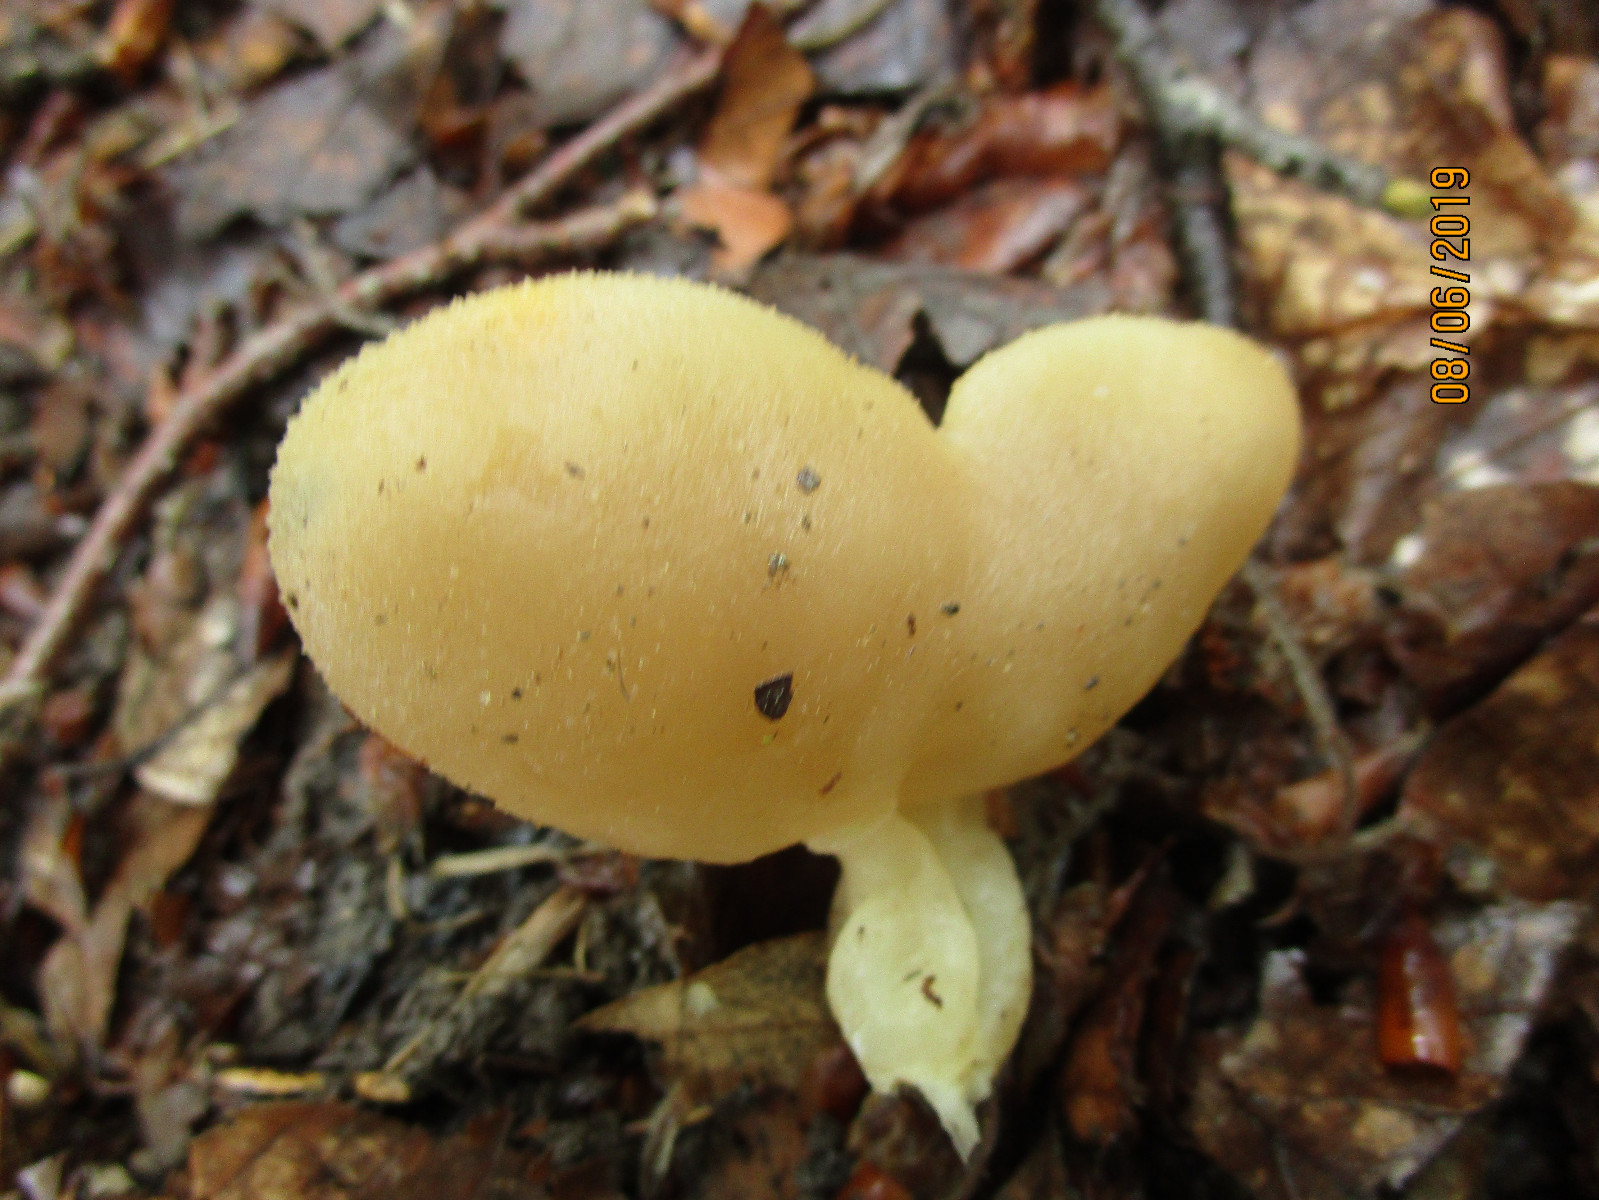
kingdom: Fungi
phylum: Ascomycota
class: Pezizomycetes
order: Pezizales
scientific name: Pezizales
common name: bægersvampordenen
